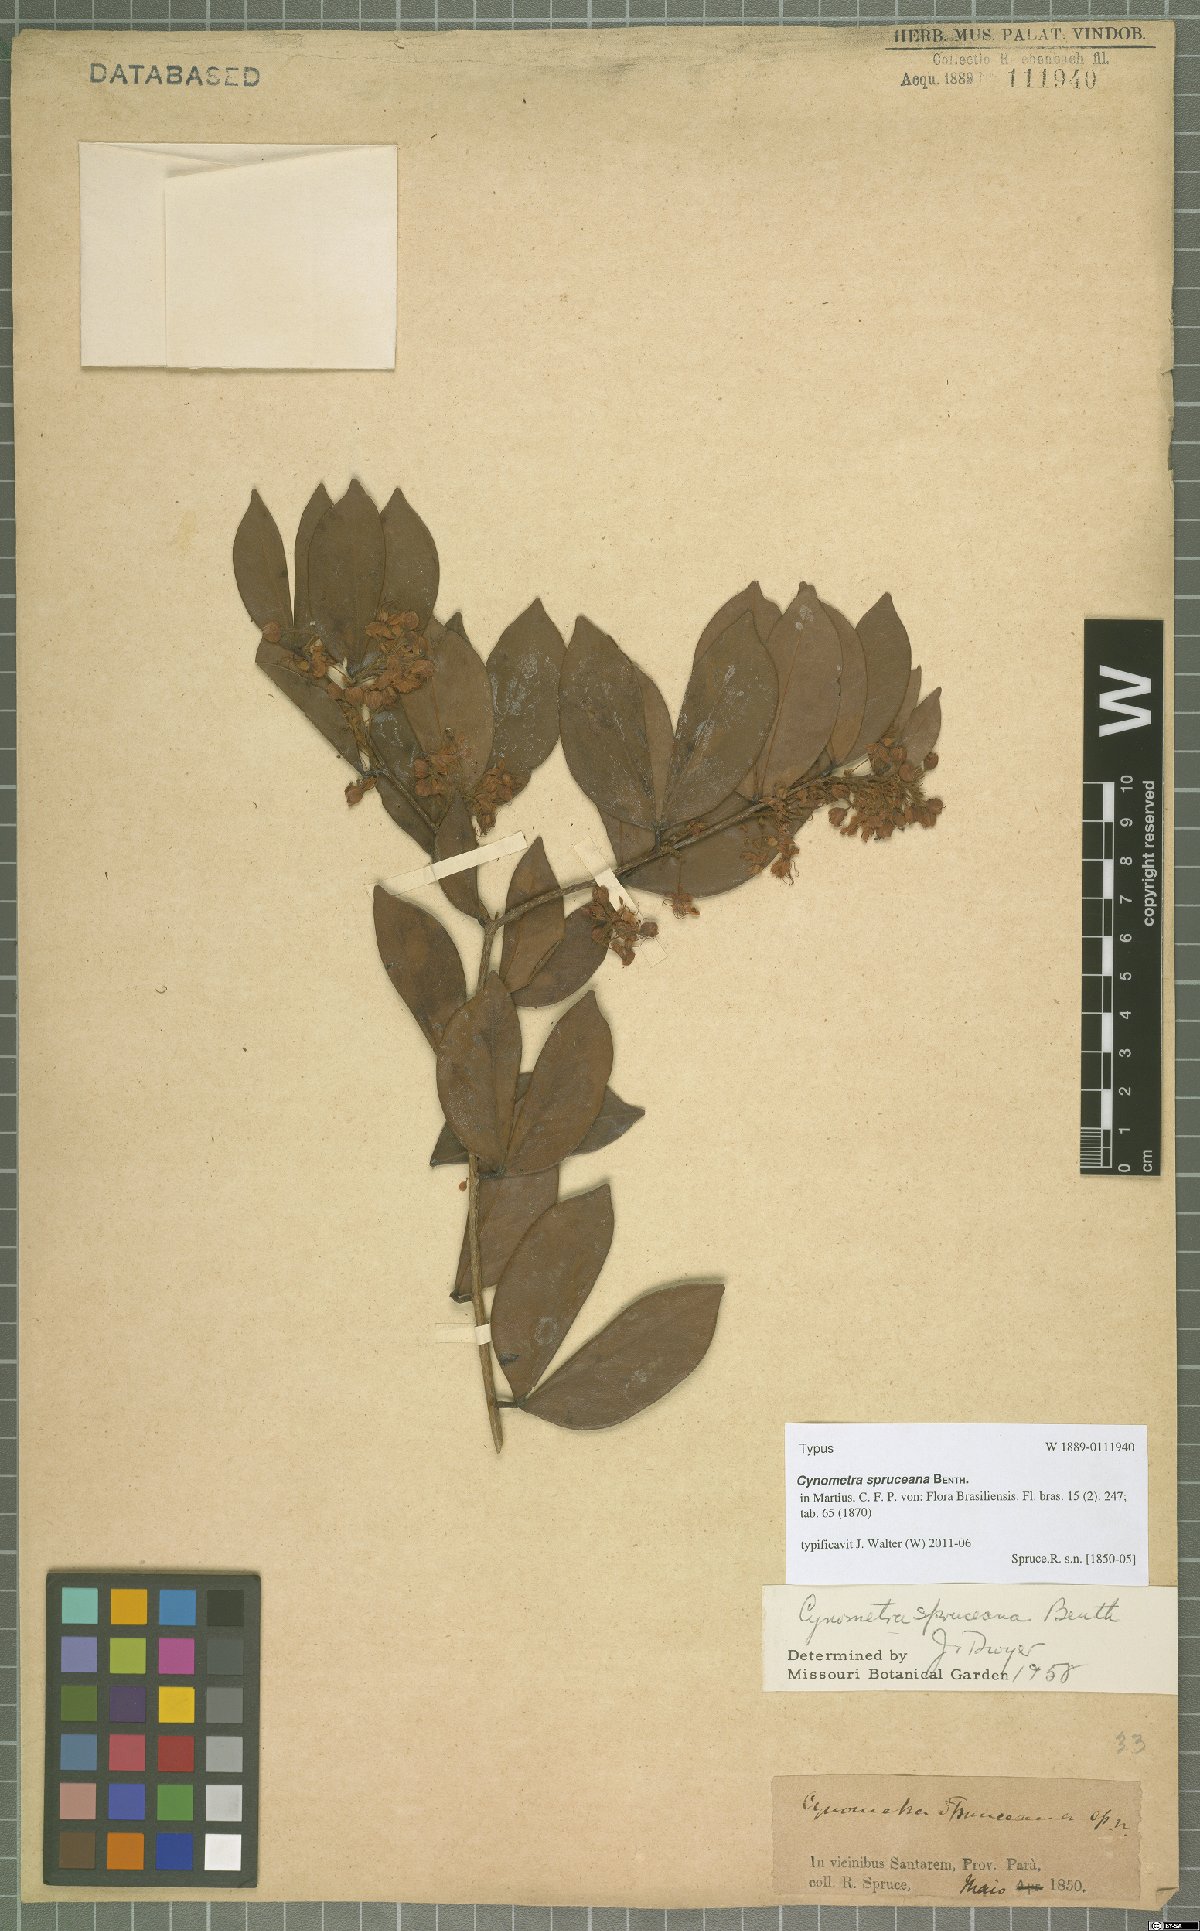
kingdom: Plantae
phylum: Tracheophyta
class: Magnoliopsida
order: Fabales
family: Fabaceae
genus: Cynometra
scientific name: Cynometra phaselocarpa
